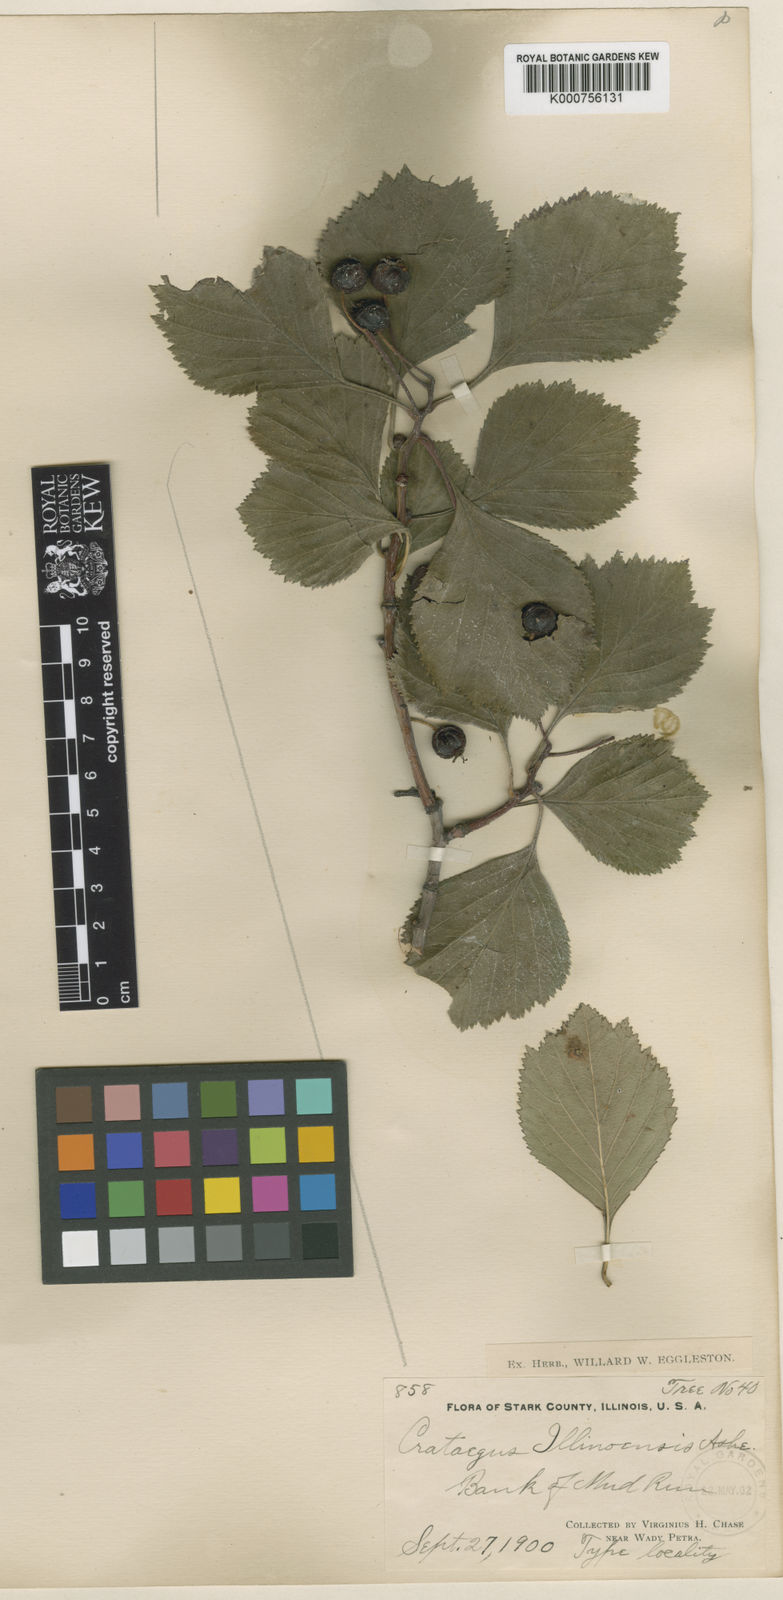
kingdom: Plantae
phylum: Tracheophyta
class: Magnoliopsida
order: Rosales
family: Rosaceae
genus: Crataegus
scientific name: Crataegus illinoiensis
